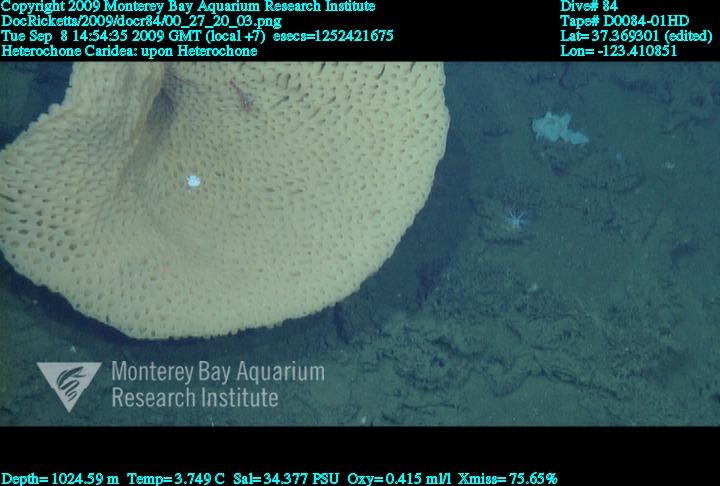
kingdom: Animalia
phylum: Porifera
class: Hexactinellida
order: Sceptrulophora
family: Aphrocallistidae
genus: Heterochone
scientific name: Heterochone
